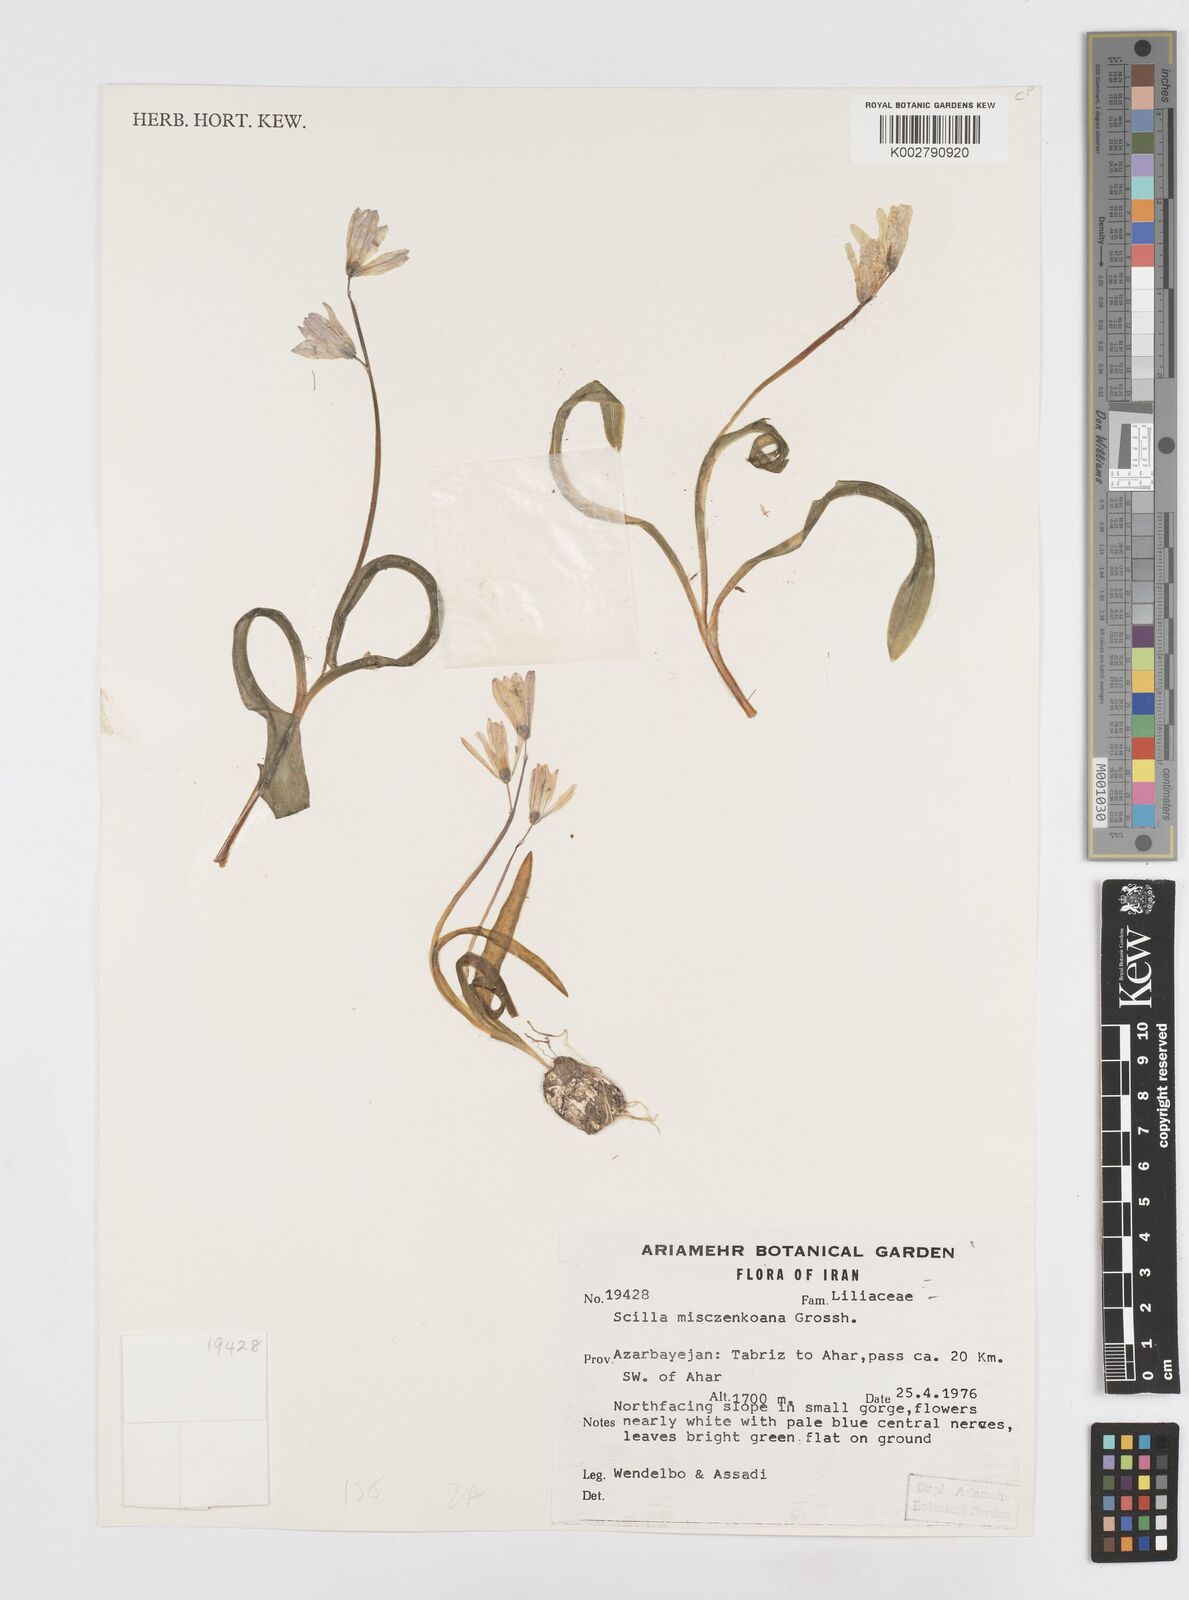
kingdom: Plantae
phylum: Tracheophyta
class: Liliopsida
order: Asparagales
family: Asparagaceae
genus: Scilla
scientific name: Scilla mischtschenkoana
